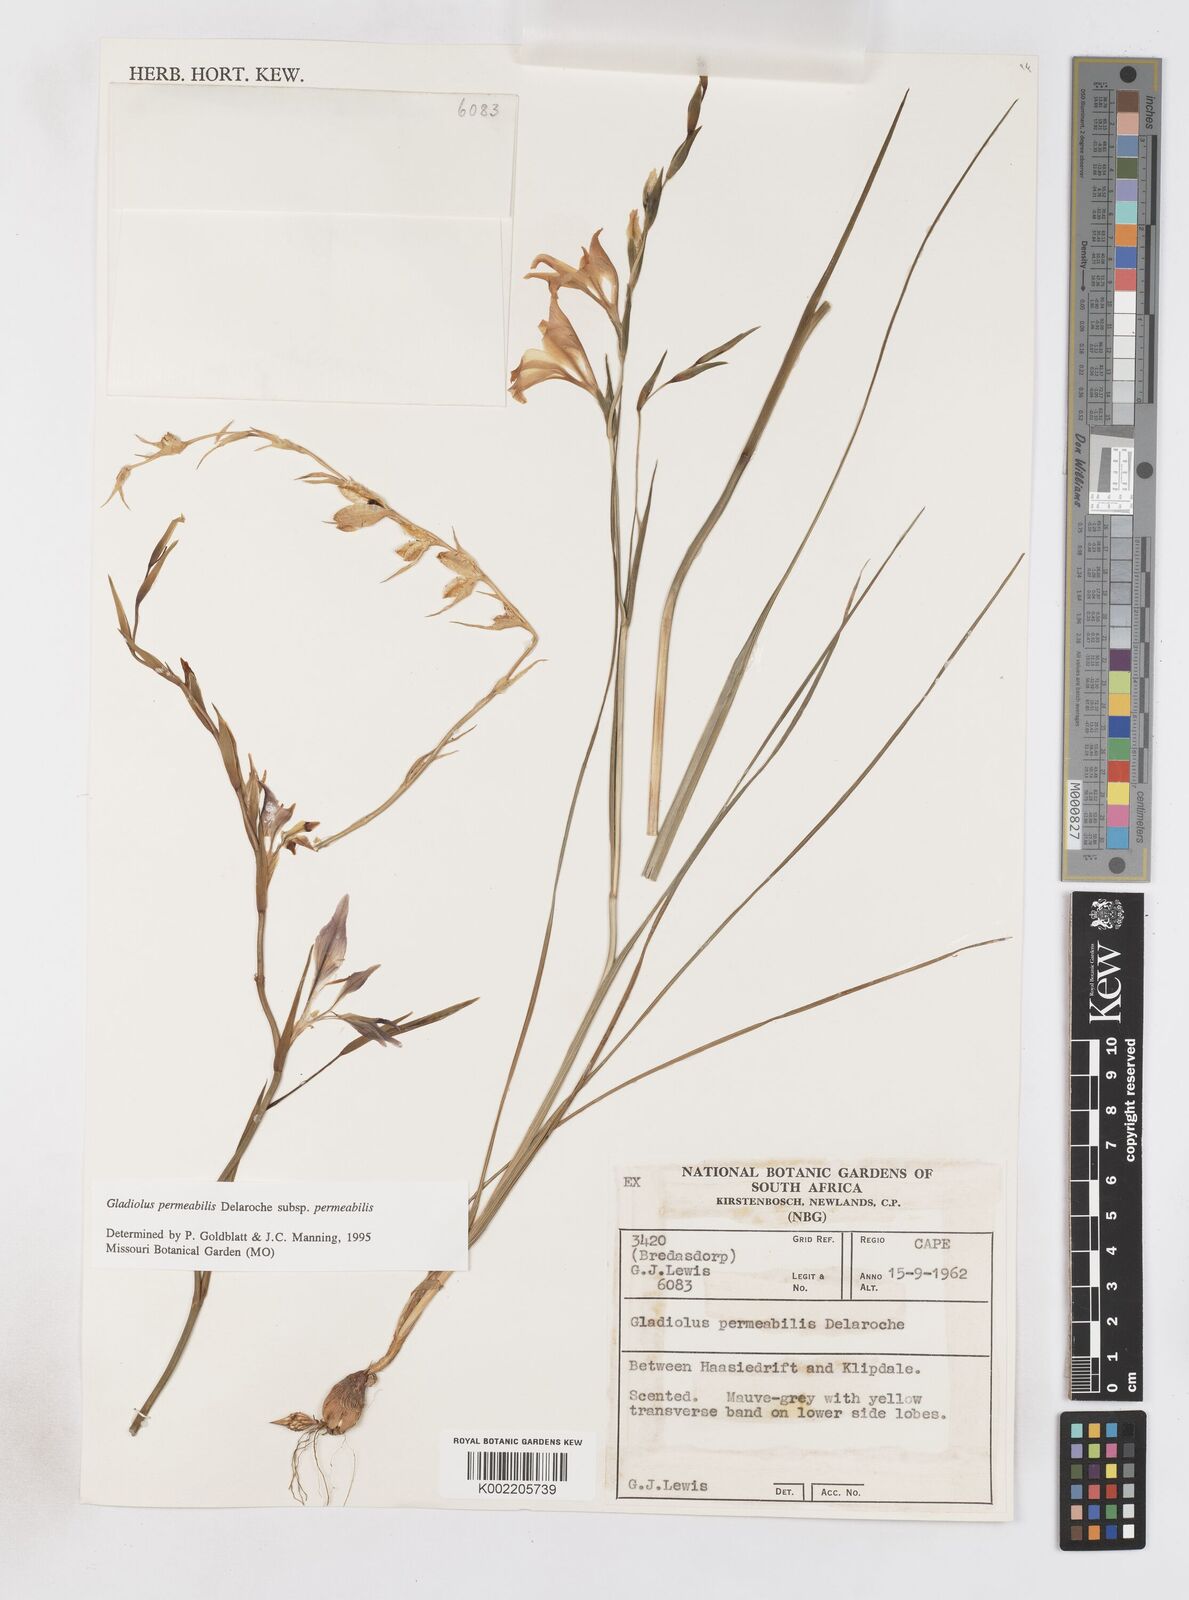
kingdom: Plantae
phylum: Tracheophyta
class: Liliopsida
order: Asparagales
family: Iridaceae
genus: Gladiolus
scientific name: Gladiolus permeabilis
